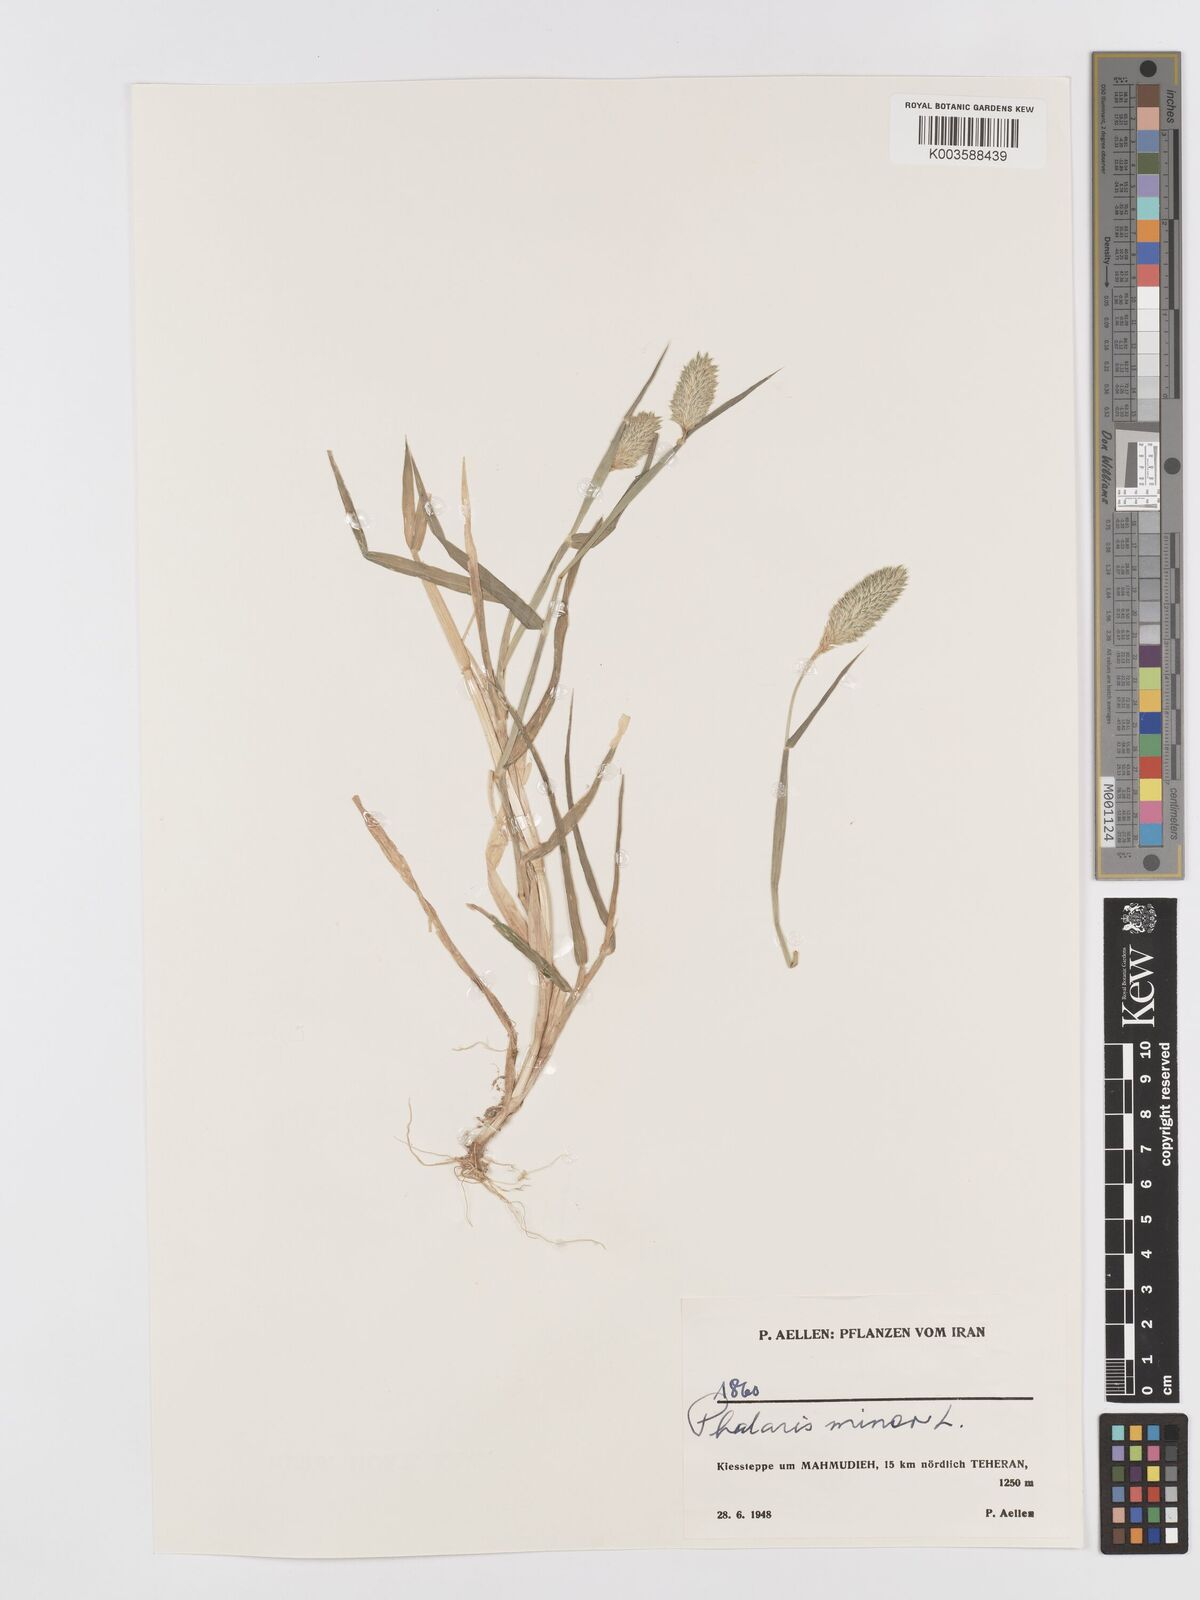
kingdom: Plantae
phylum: Tracheophyta
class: Liliopsida
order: Poales
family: Poaceae
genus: Phalaris
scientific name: Phalaris minor
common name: Littleseed canarygrass
